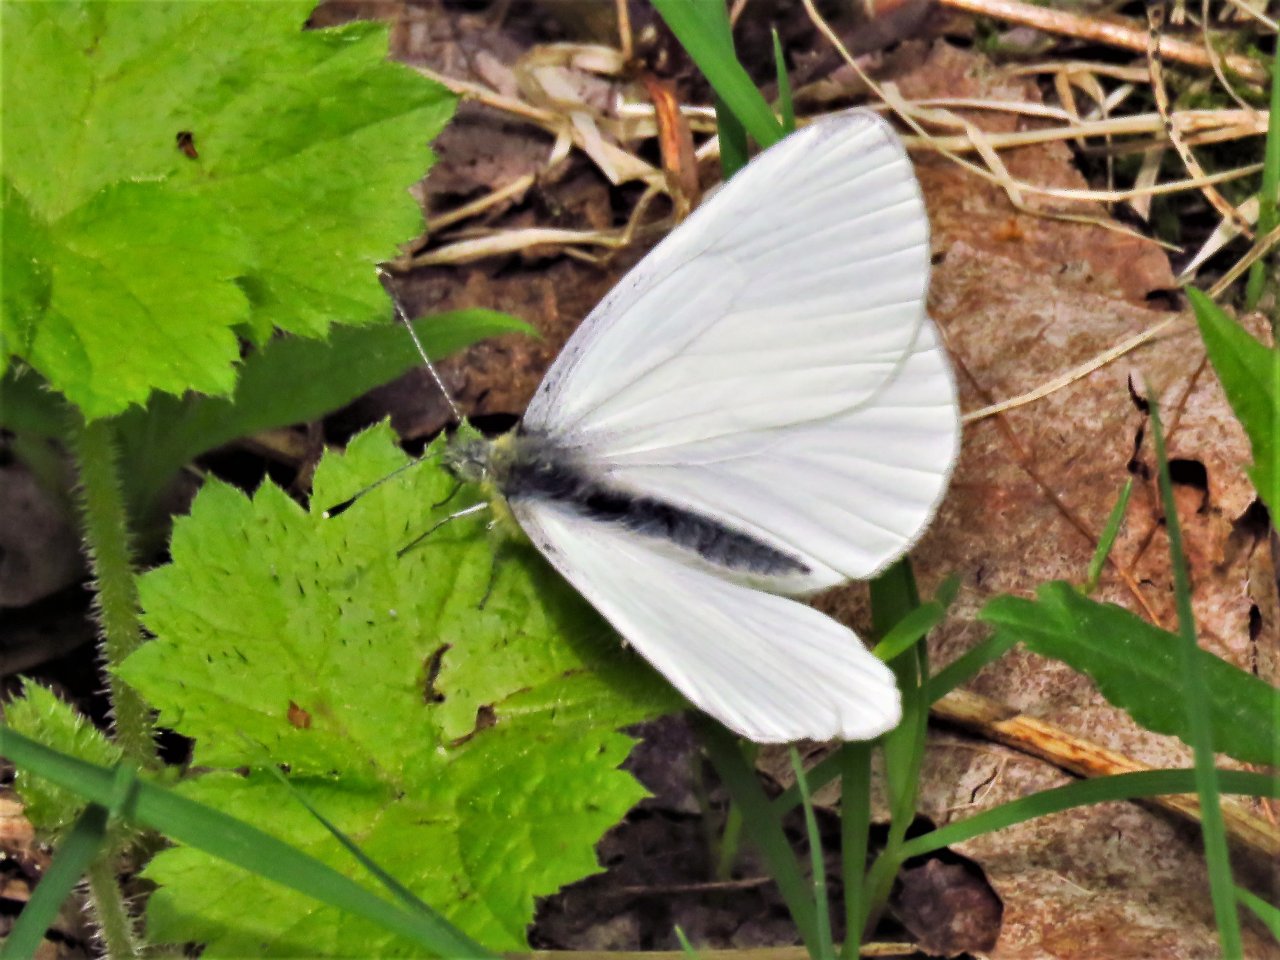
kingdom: Animalia
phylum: Arthropoda
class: Insecta
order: Lepidoptera
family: Pieridae
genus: Pieris
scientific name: Pieris oleracea
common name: Mustard White
